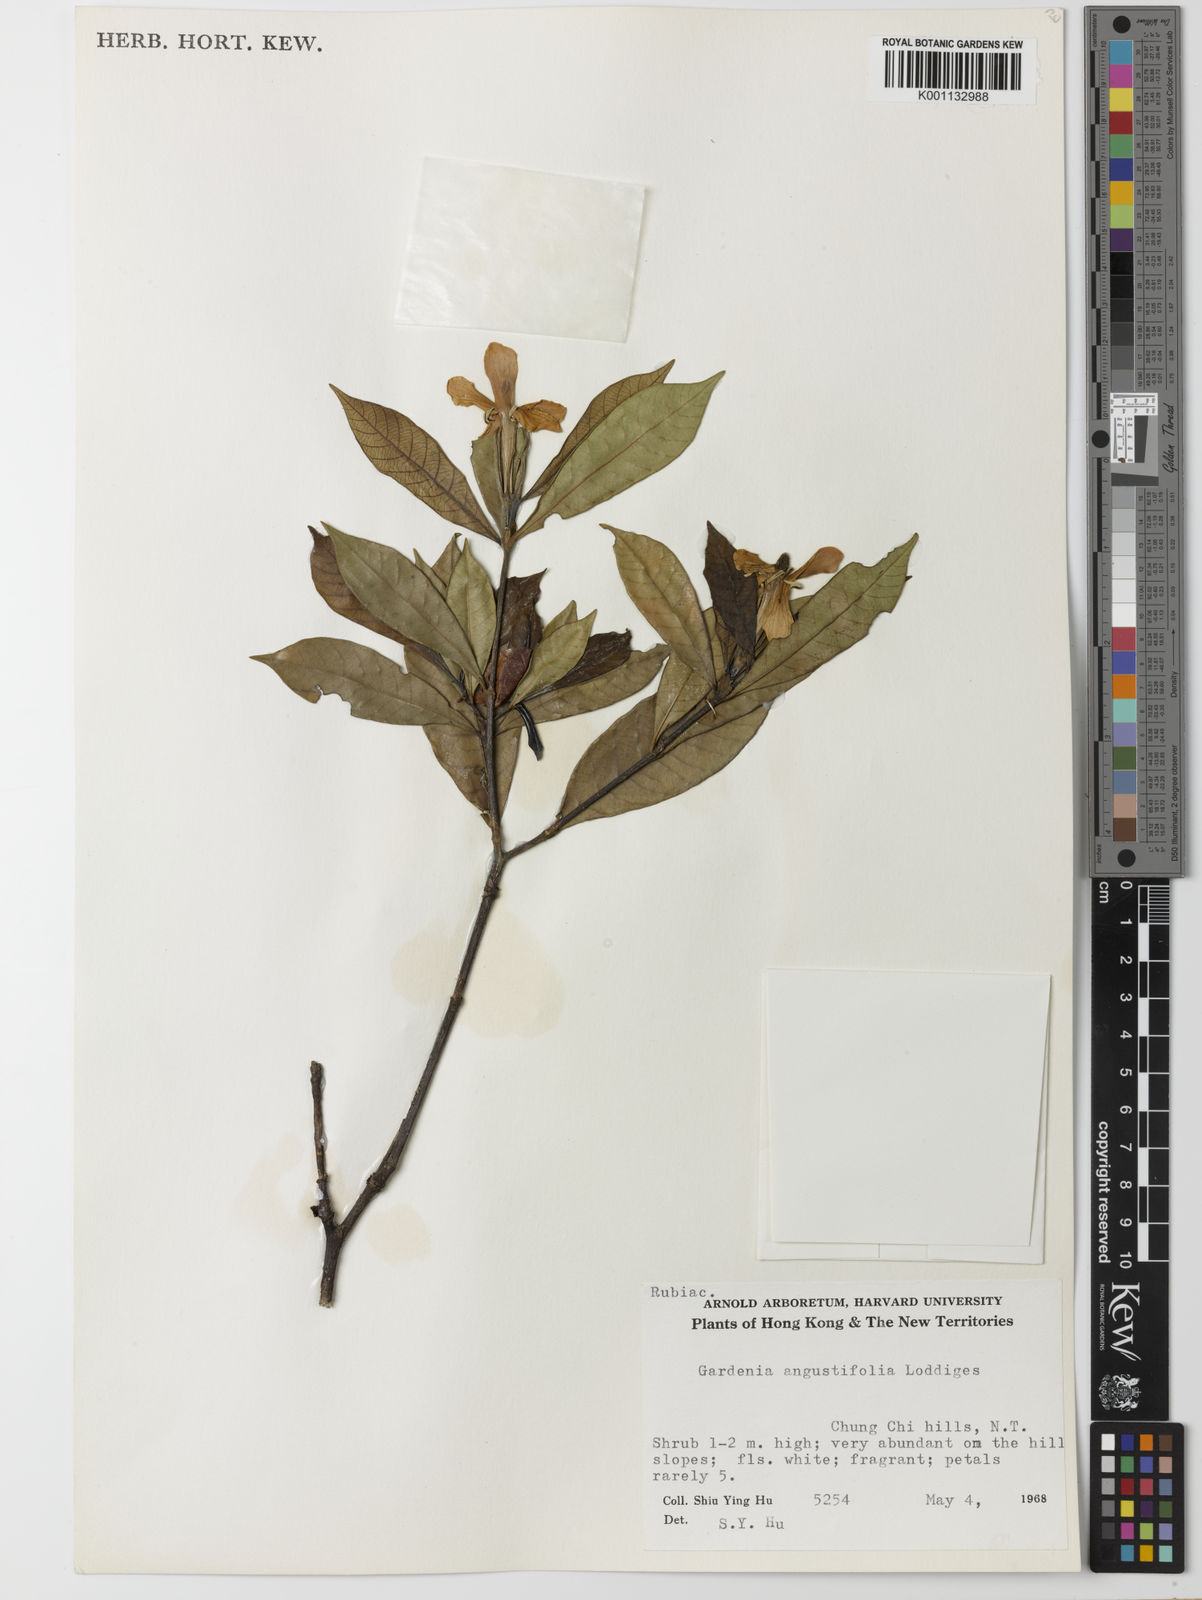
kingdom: Plantae
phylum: Tracheophyta
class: Magnoliopsida
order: Gentianales
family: Rubiaceae
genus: Gardenia
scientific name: Gardenia jasminoides
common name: Cape-jasmine
